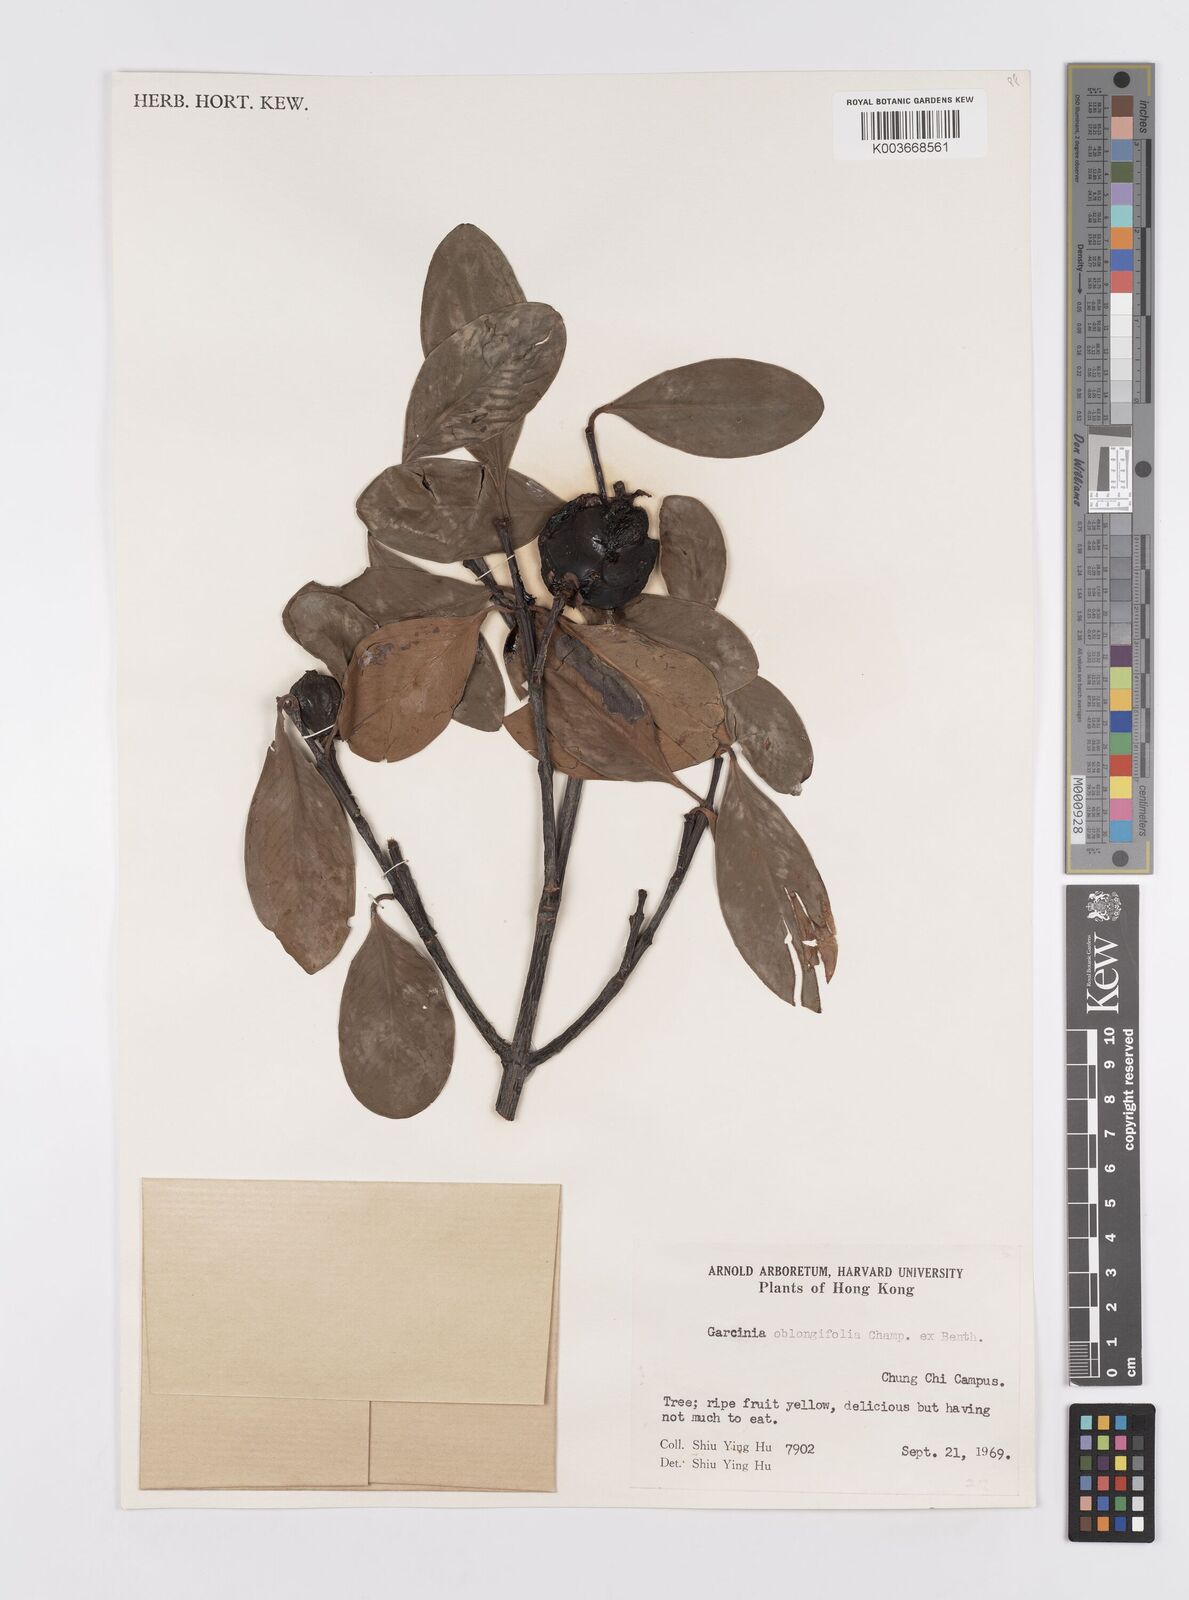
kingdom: Plantae
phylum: Tracheophyta
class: Magnoliopsida
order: Malpighiales
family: Clusiaceae
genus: Garcinia
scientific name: Garcinia oblongifolia
